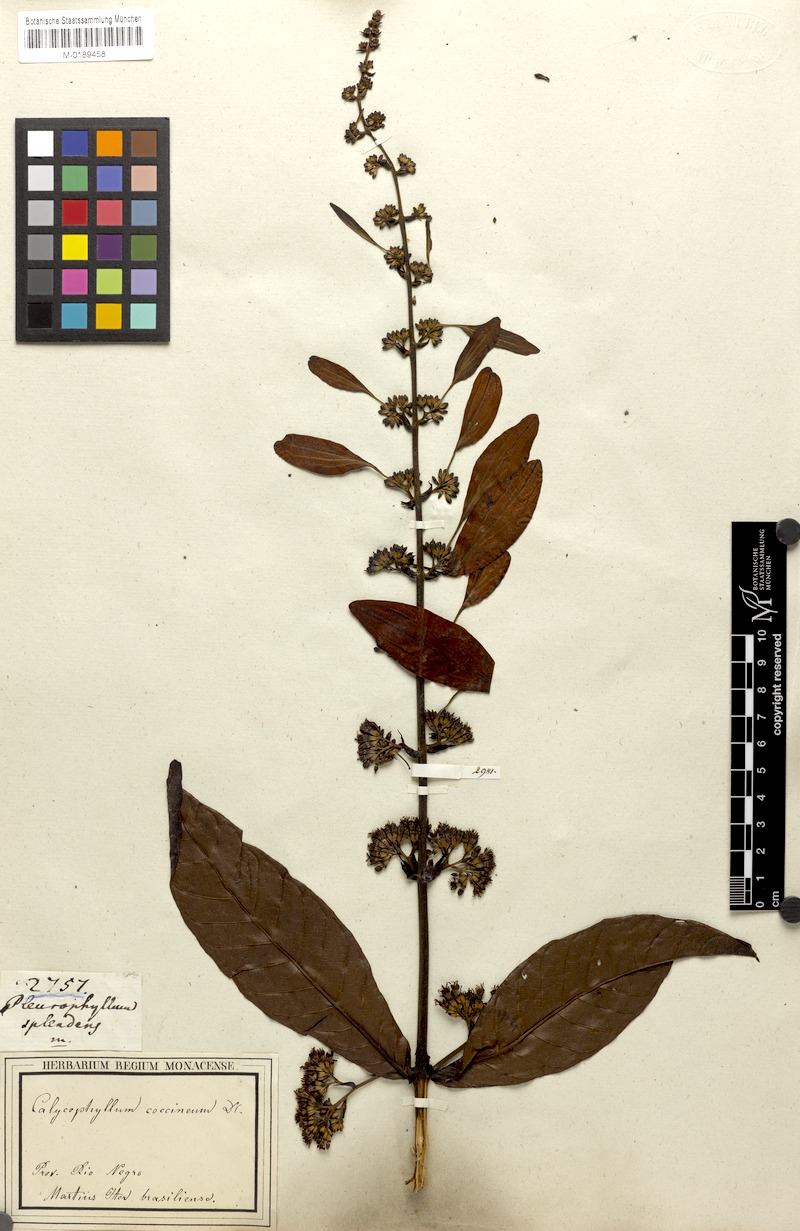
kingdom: Plantae
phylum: Tracheophyta
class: Magnoliopsida
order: Gentianales
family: Rubiaceae
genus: Warszewiczia
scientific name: Warszewiczia coccinea
